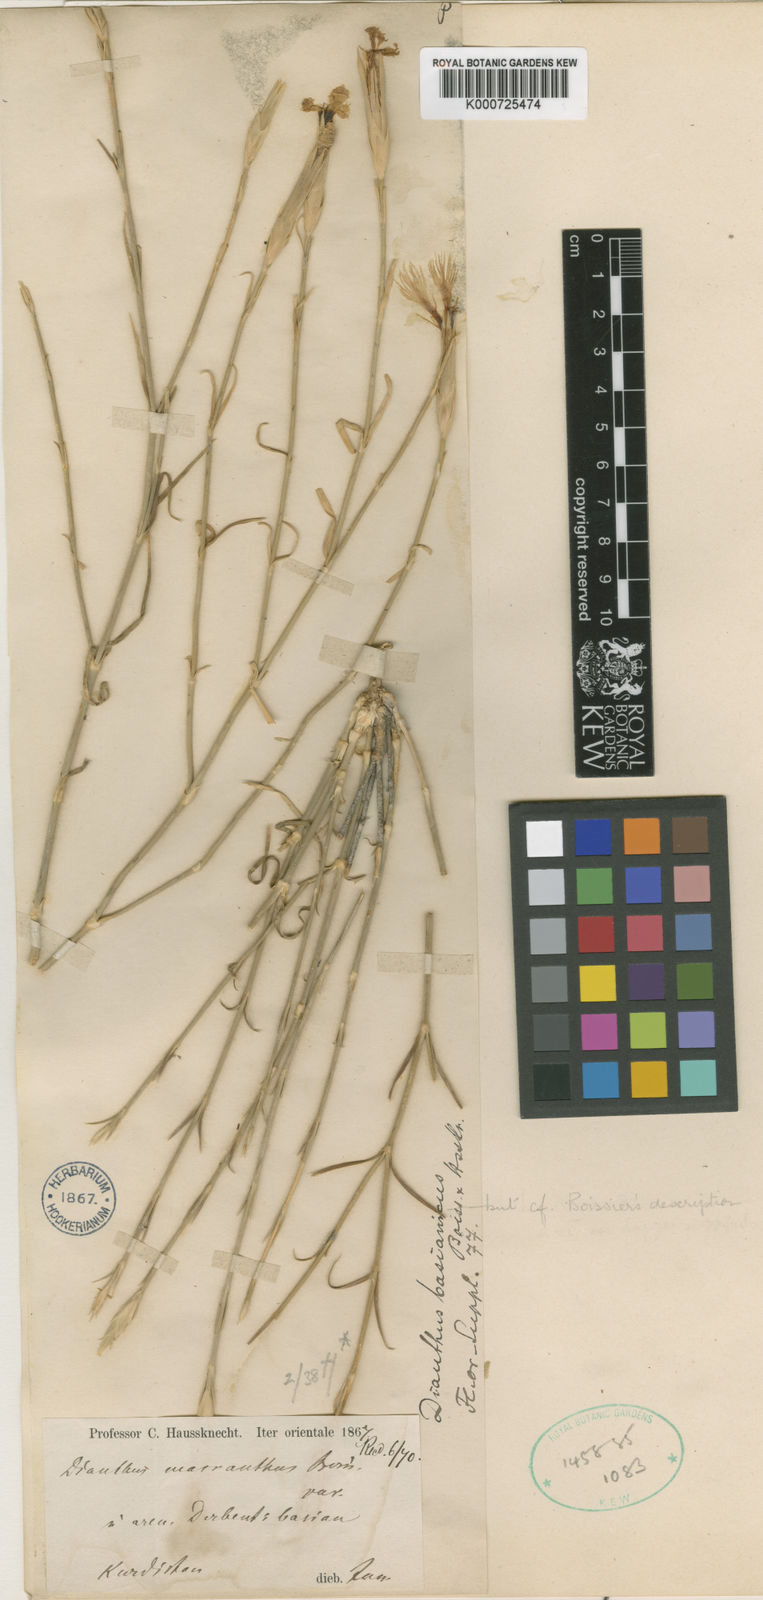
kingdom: Plantae
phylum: Tracheophyta
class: Magnoliopsida
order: Caryophyllales
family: Caryophyllaceae
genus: Dianthus
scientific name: Dianthus basianicus
